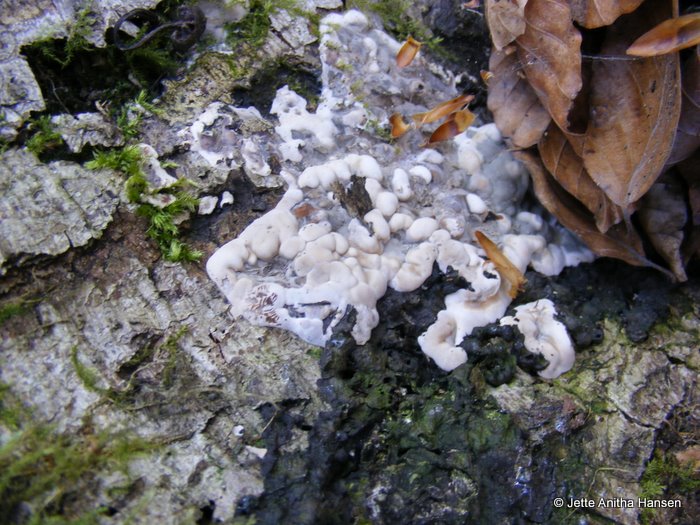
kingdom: Fungi
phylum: Ascomycota
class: Sordariomycetes
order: Xylariales
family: Xylariaceae
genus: Kretzschmaria
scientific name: Kretzschmaria deusta
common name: stor kulsvamp
